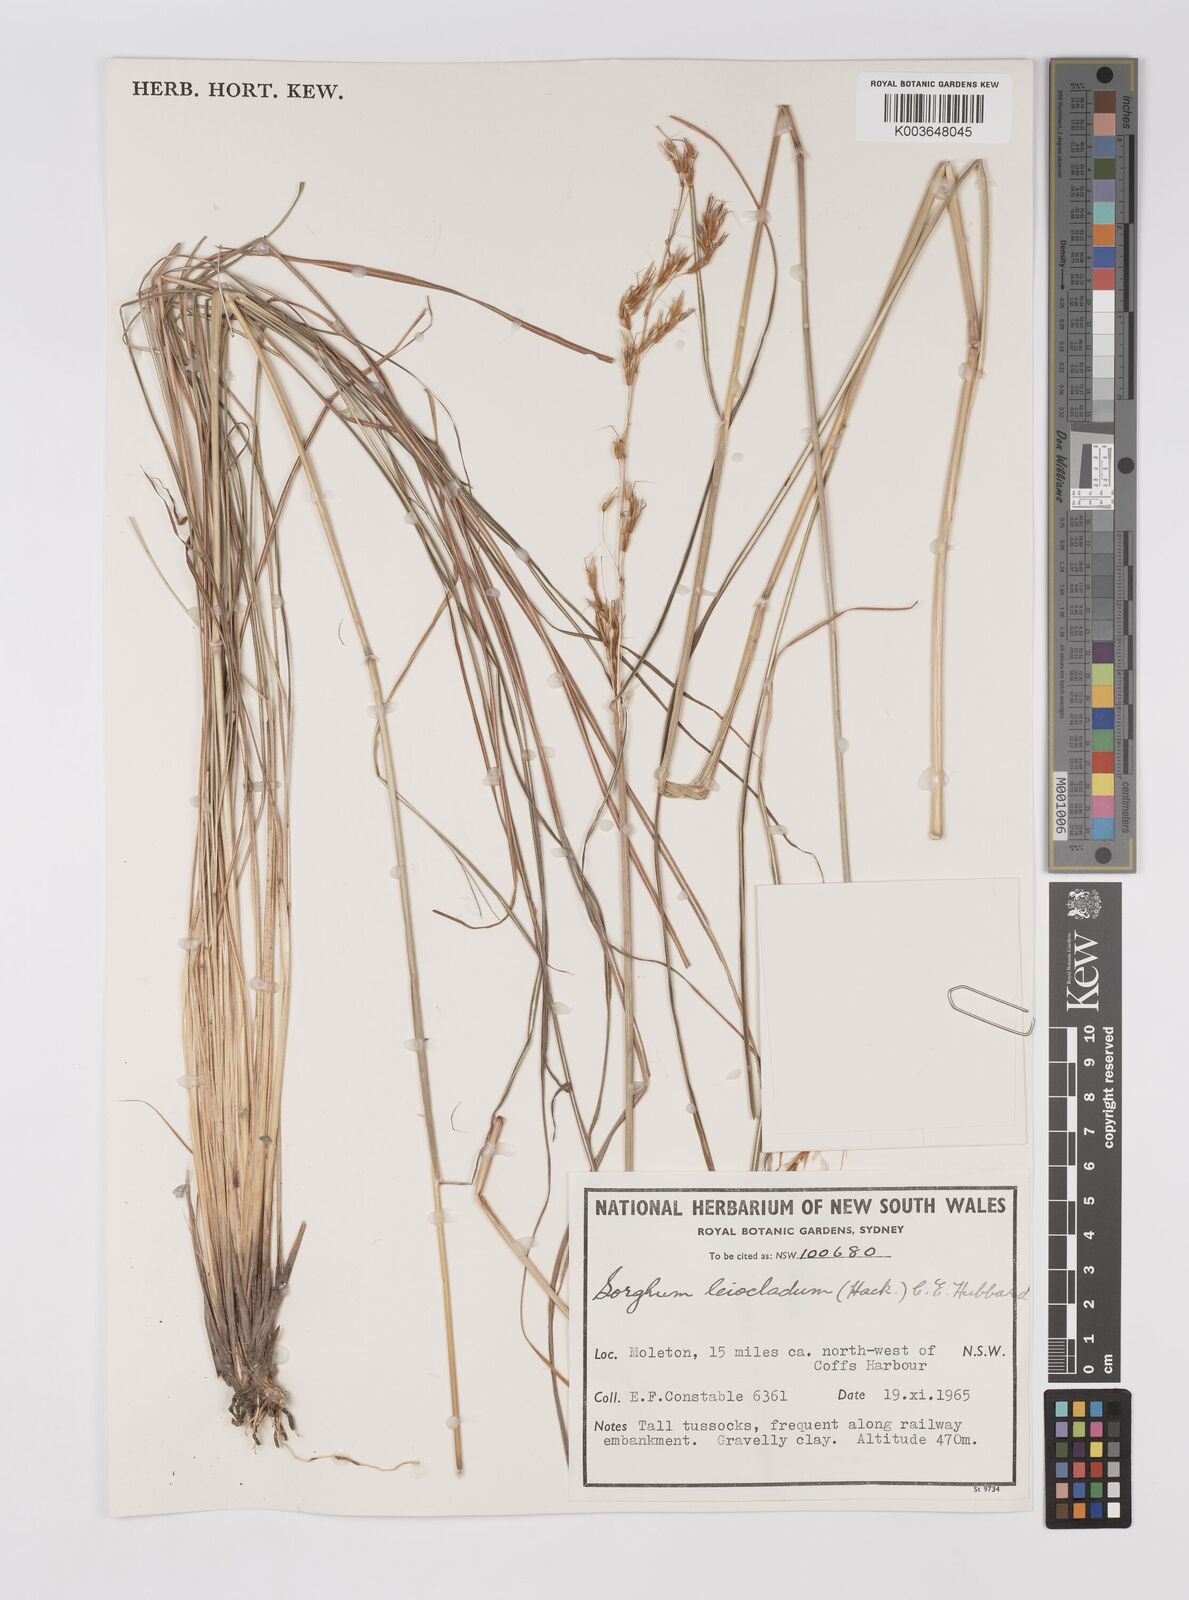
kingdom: Plantae
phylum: Tracheophyta
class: Liliopsida
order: Poales
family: Poaceae
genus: Sarga
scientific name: Sarga leioclada
